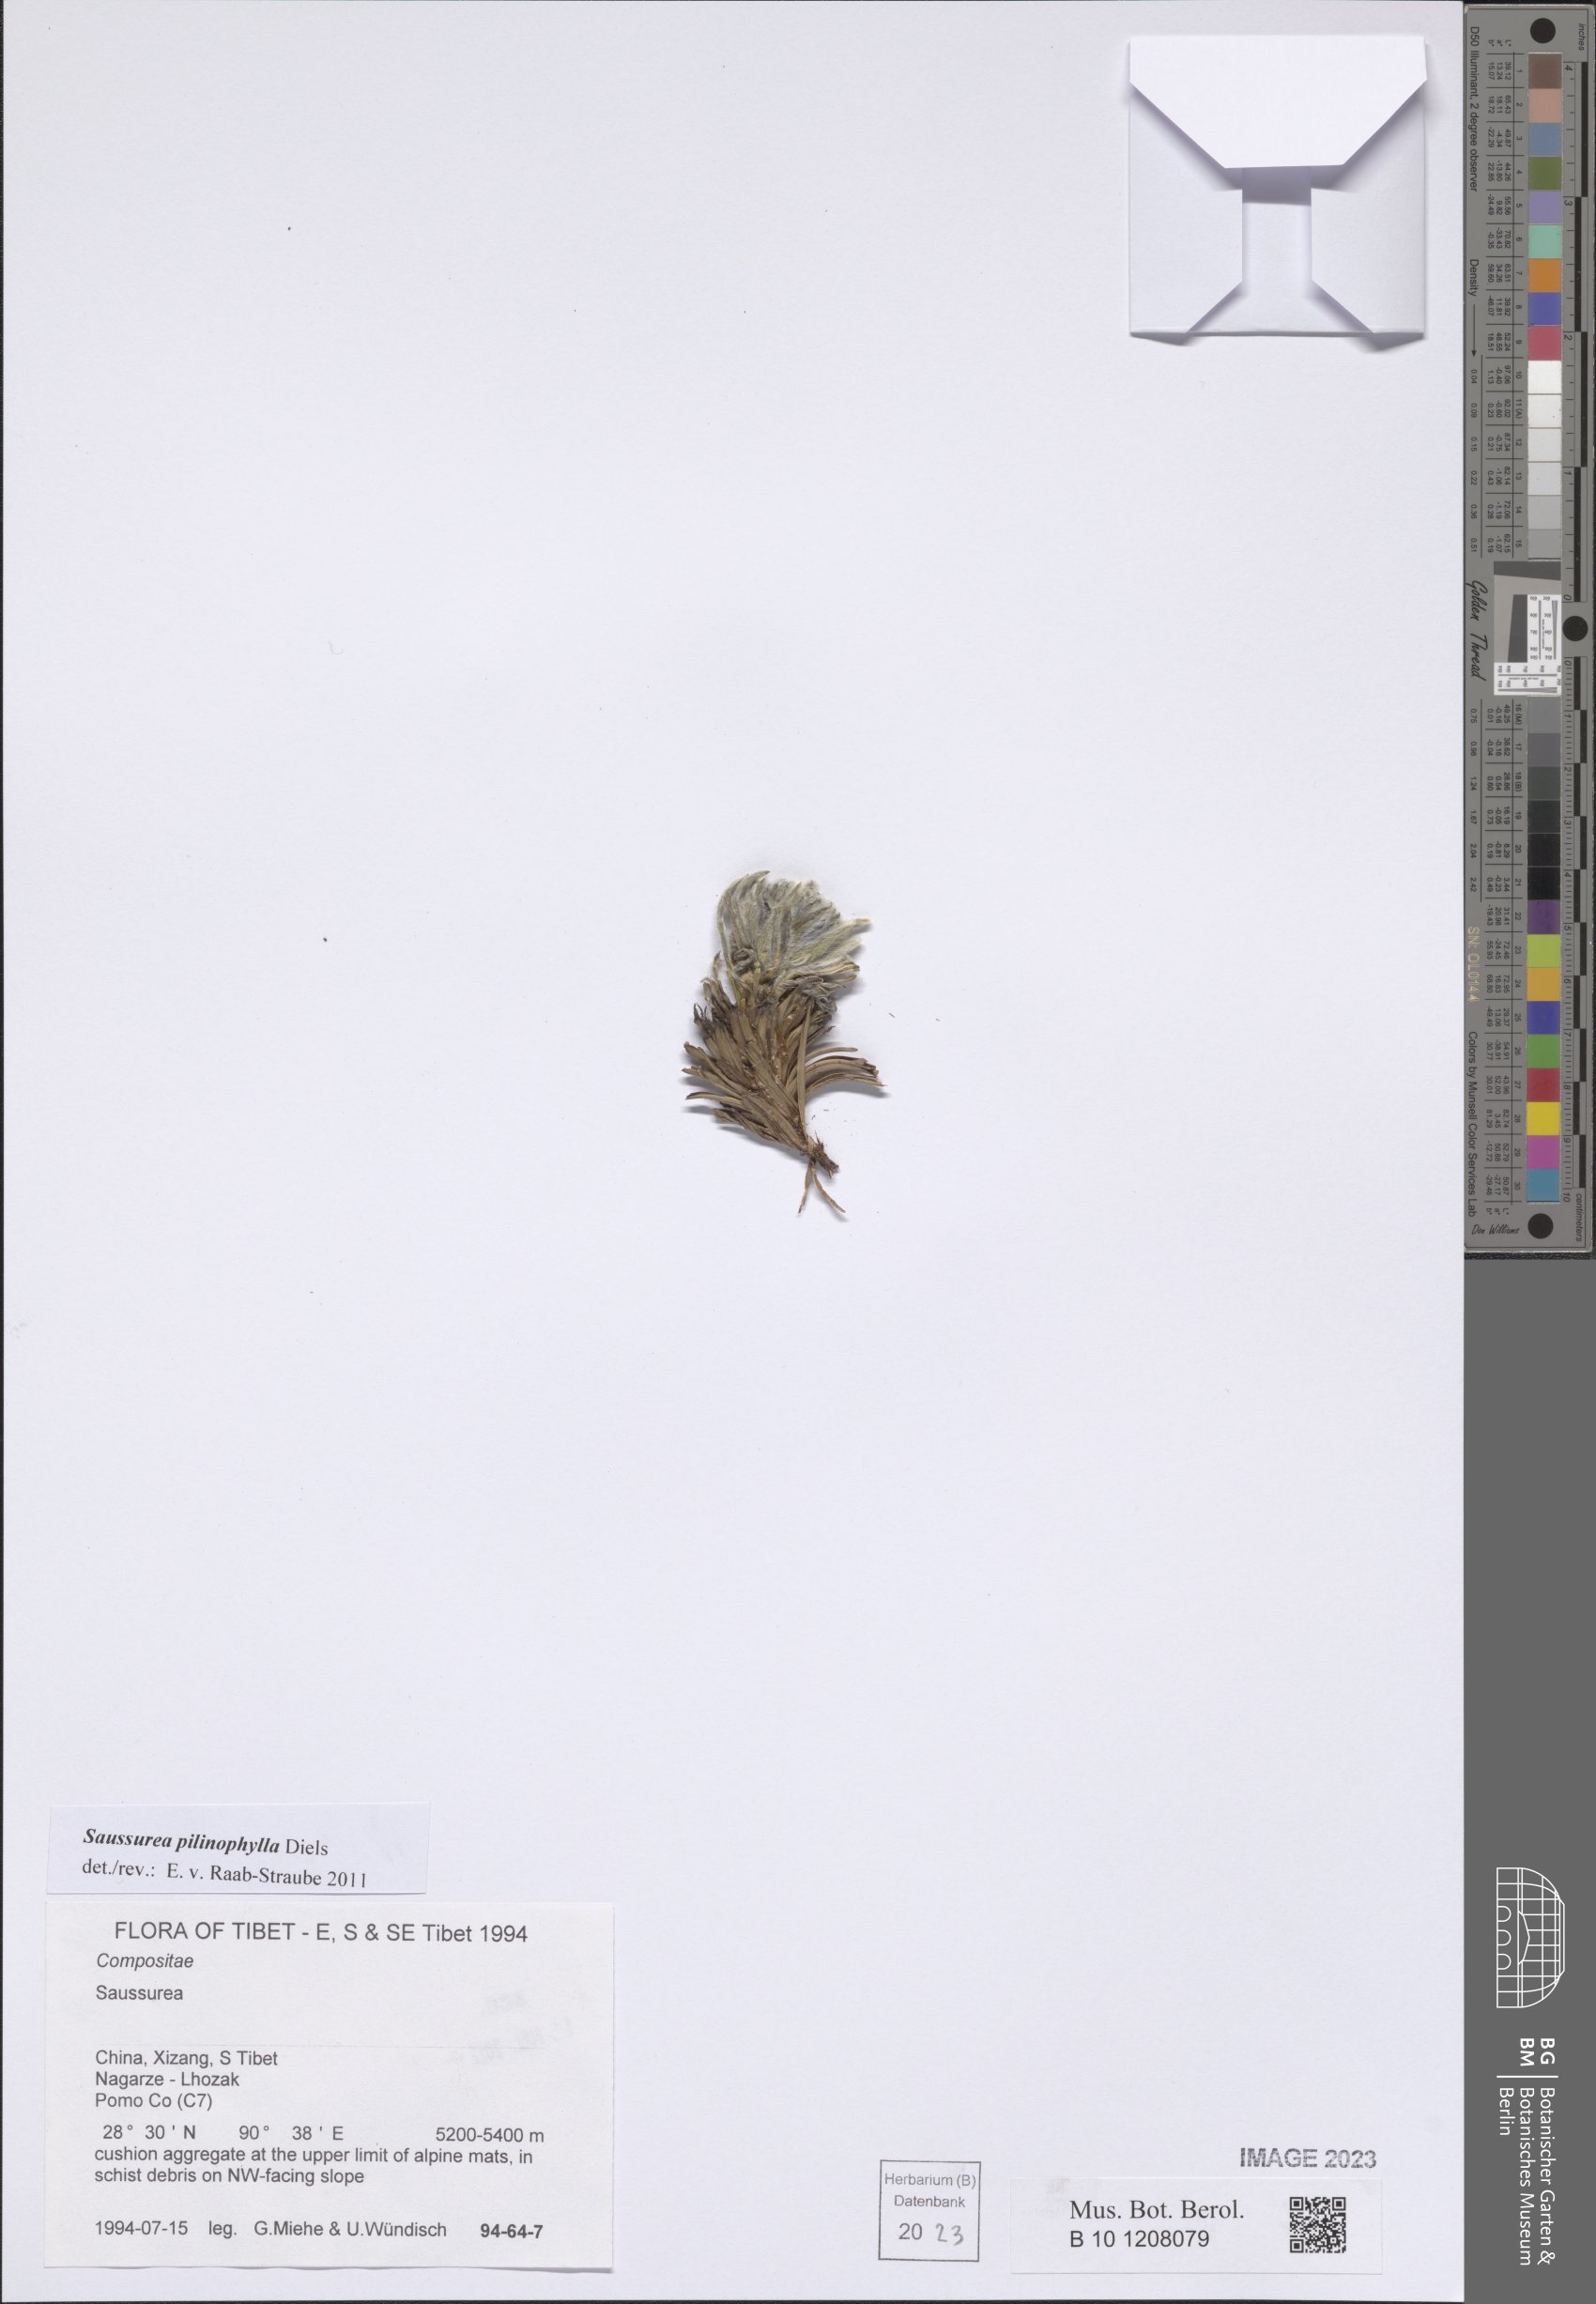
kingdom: Plantae
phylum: Tracheophyta
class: Magnoliopsida
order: Asterales
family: Asteraceae
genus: Saussurea
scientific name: Saussurea pilinophylla
